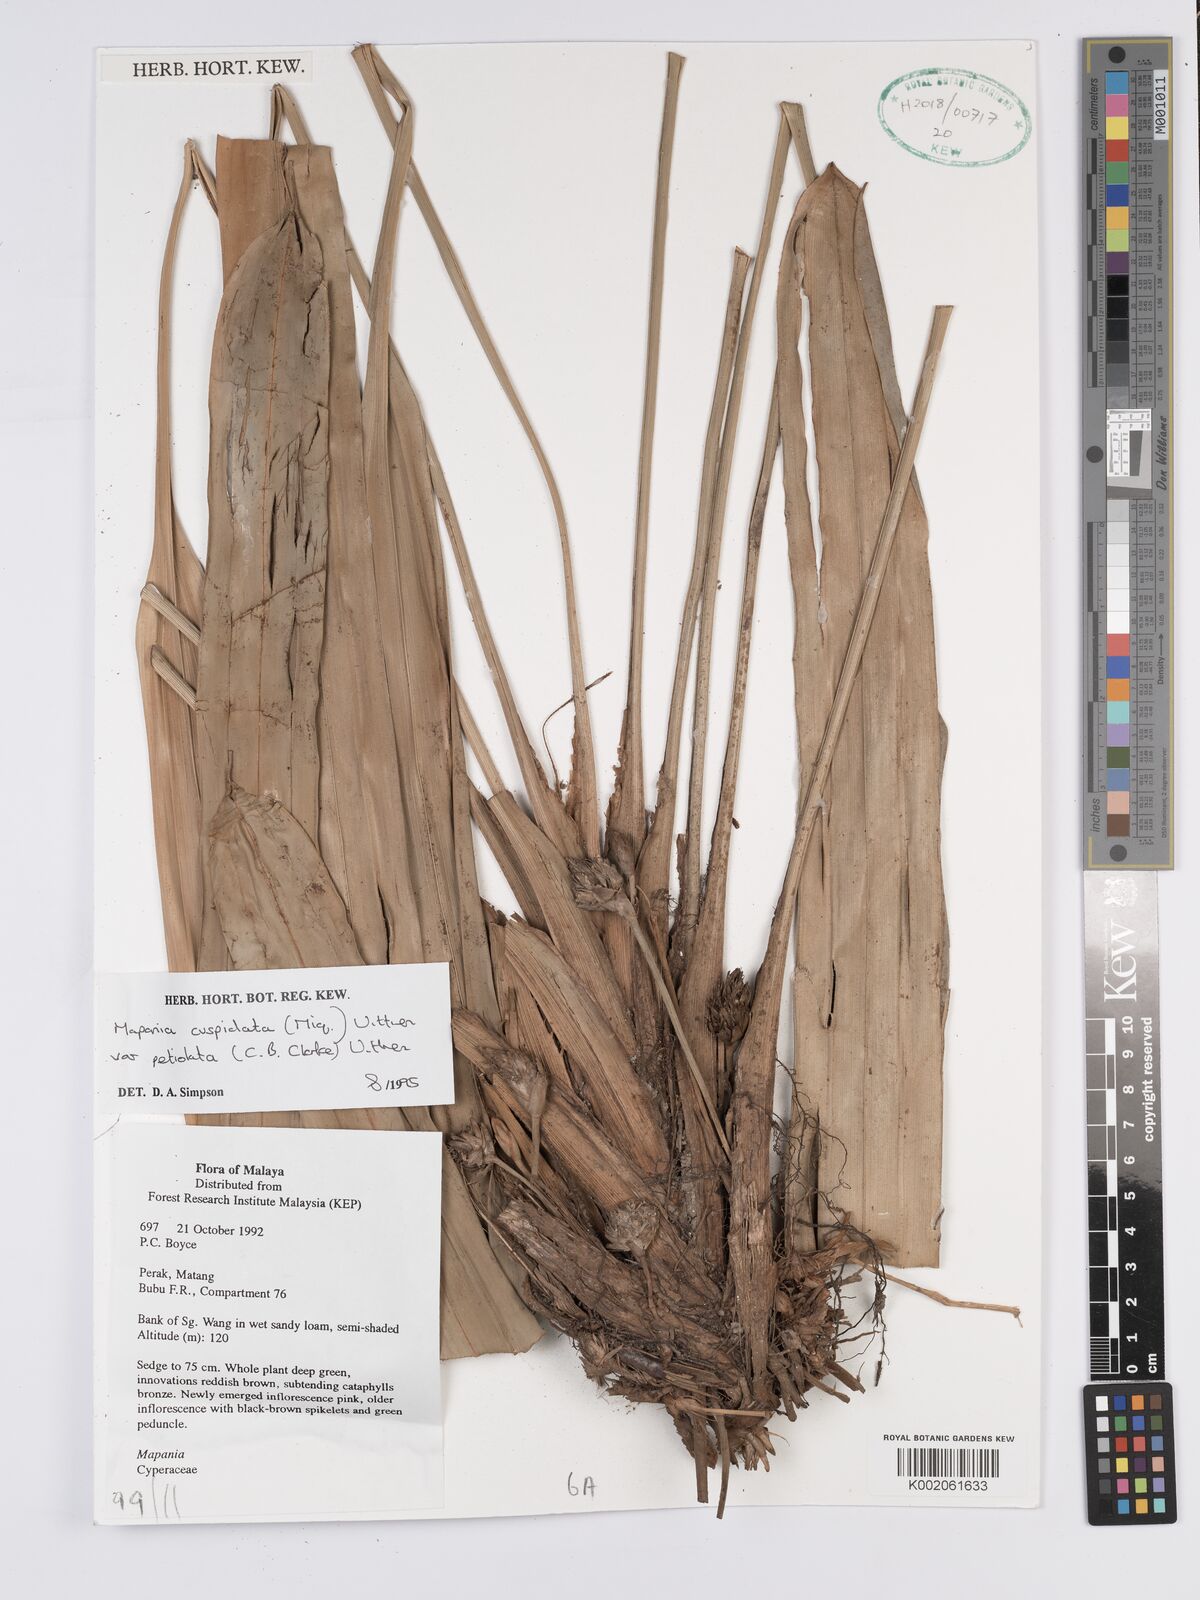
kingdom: Plantae
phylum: Tracheophyta
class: Liliopsida
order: Poales
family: Cyperaceae
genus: Mapania
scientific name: Mapania cuspidata
